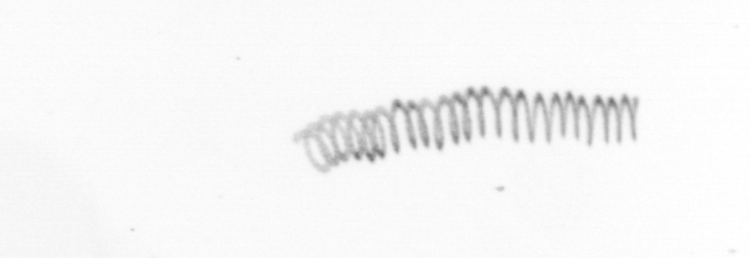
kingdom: Chromista
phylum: Ochrophyta
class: Bacillariophyceae
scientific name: Bacillariophyceae
